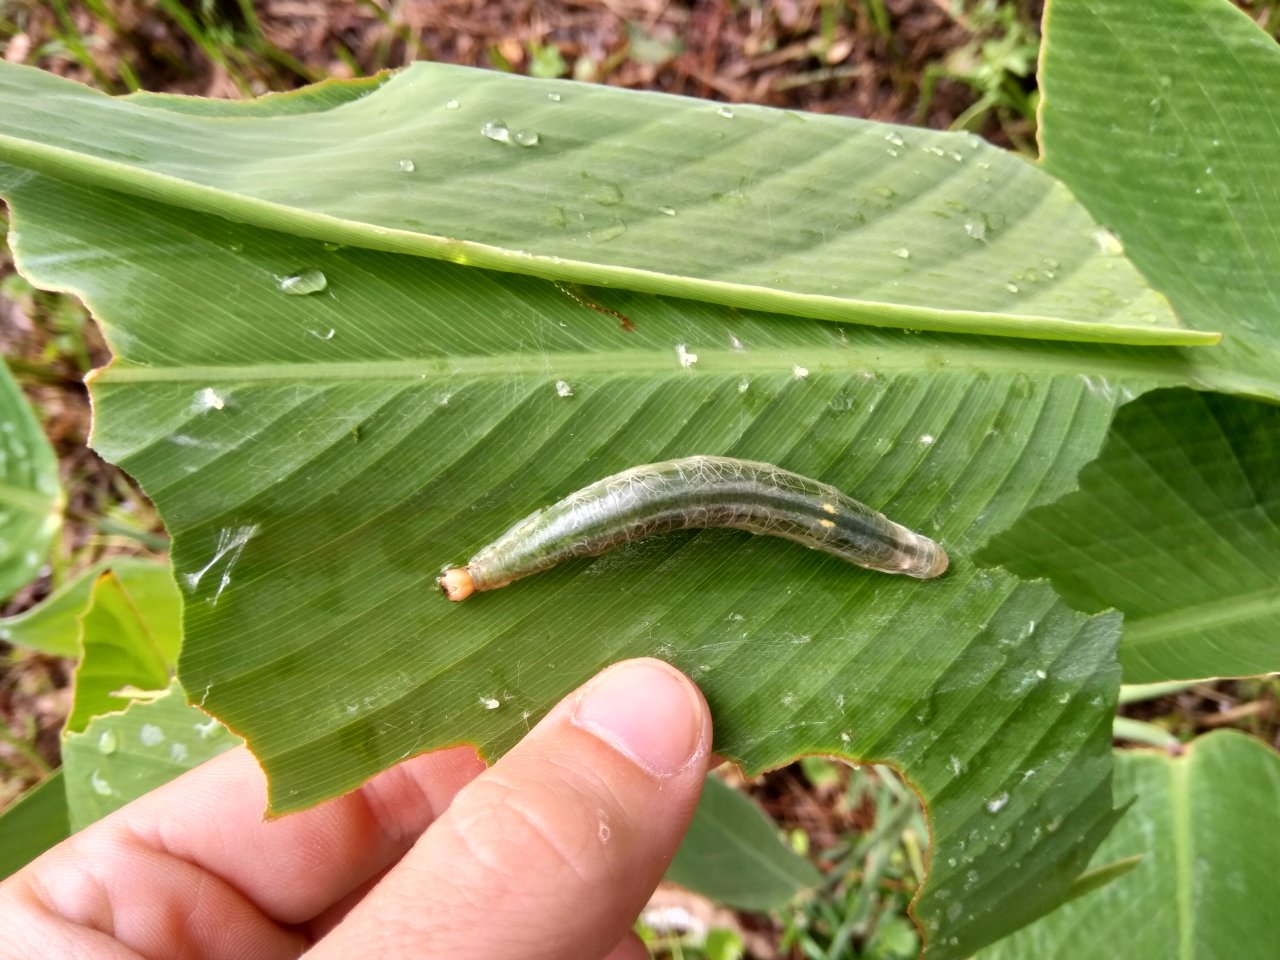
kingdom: Animalia
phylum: Arthropoda
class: Insecta
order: Lepidoptera
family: Hesperiidae
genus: Calpodes
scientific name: Calpodes ethlius
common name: Brazilian Skipper
